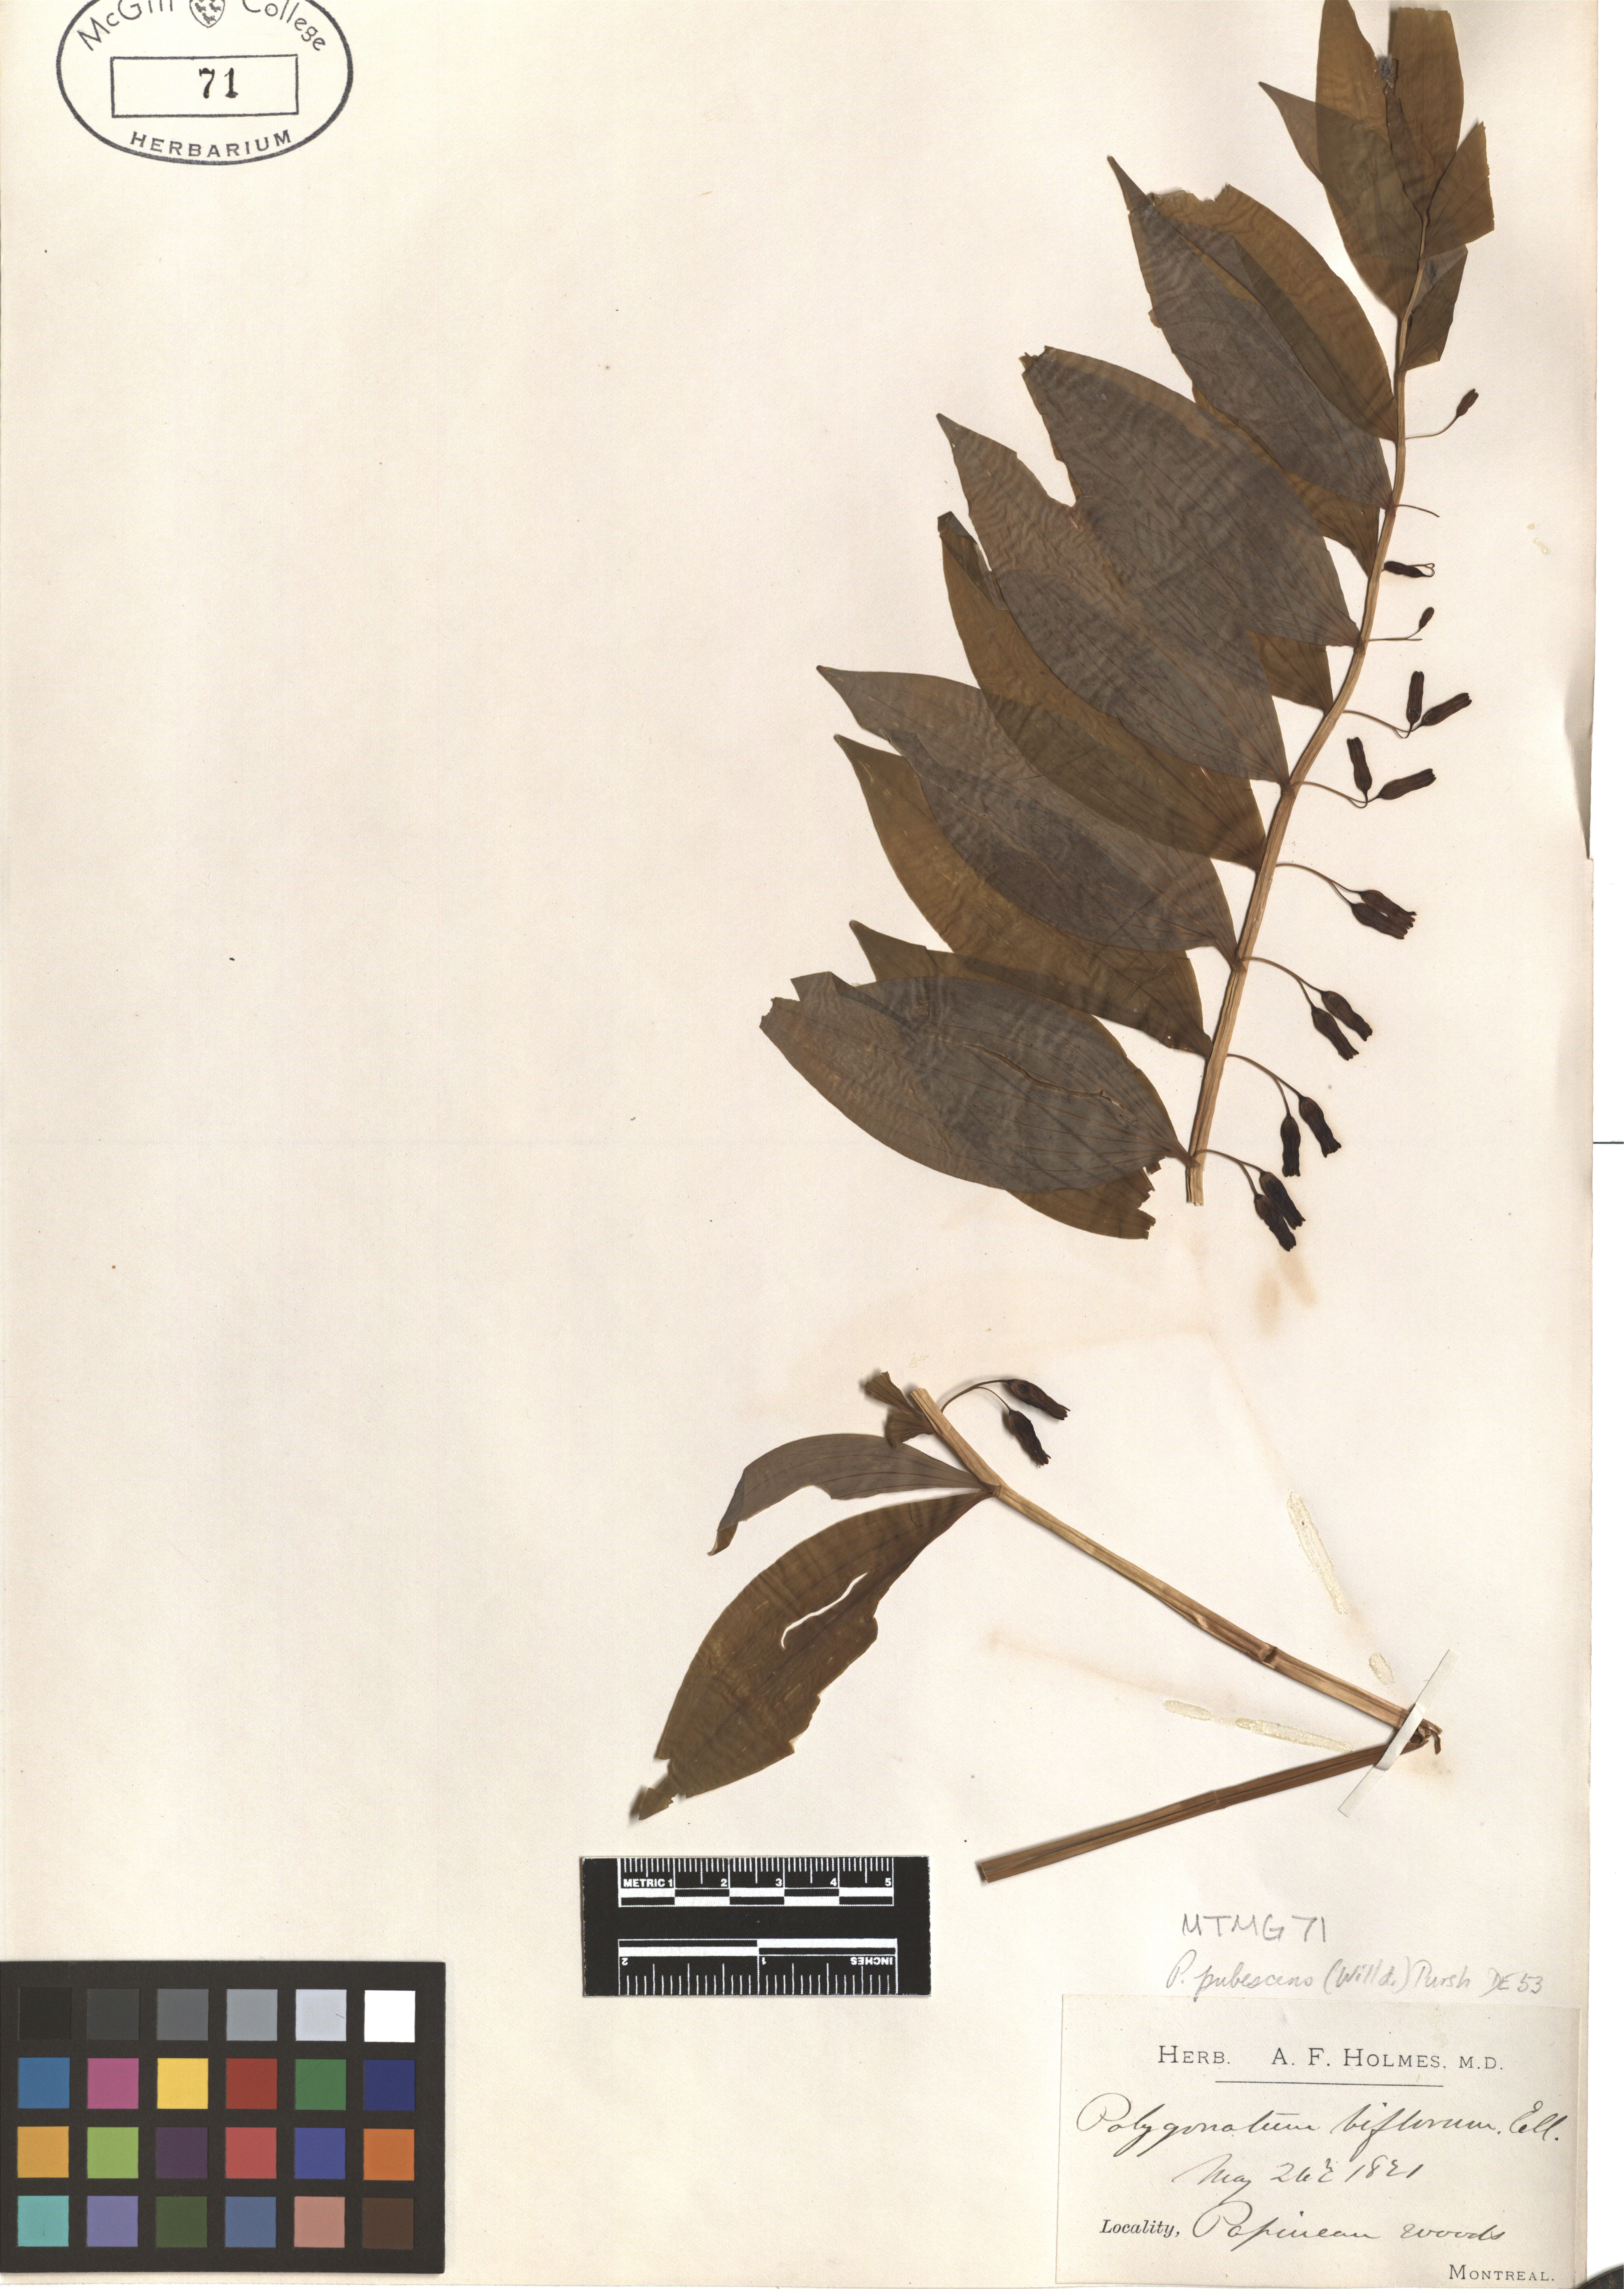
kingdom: Plantae
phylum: Tracheophyta
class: Liliopsida
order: Asparagales
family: Asparagaceae
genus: Polygonatum
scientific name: Polygonatum pubescens
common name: Downy solomon's seal
